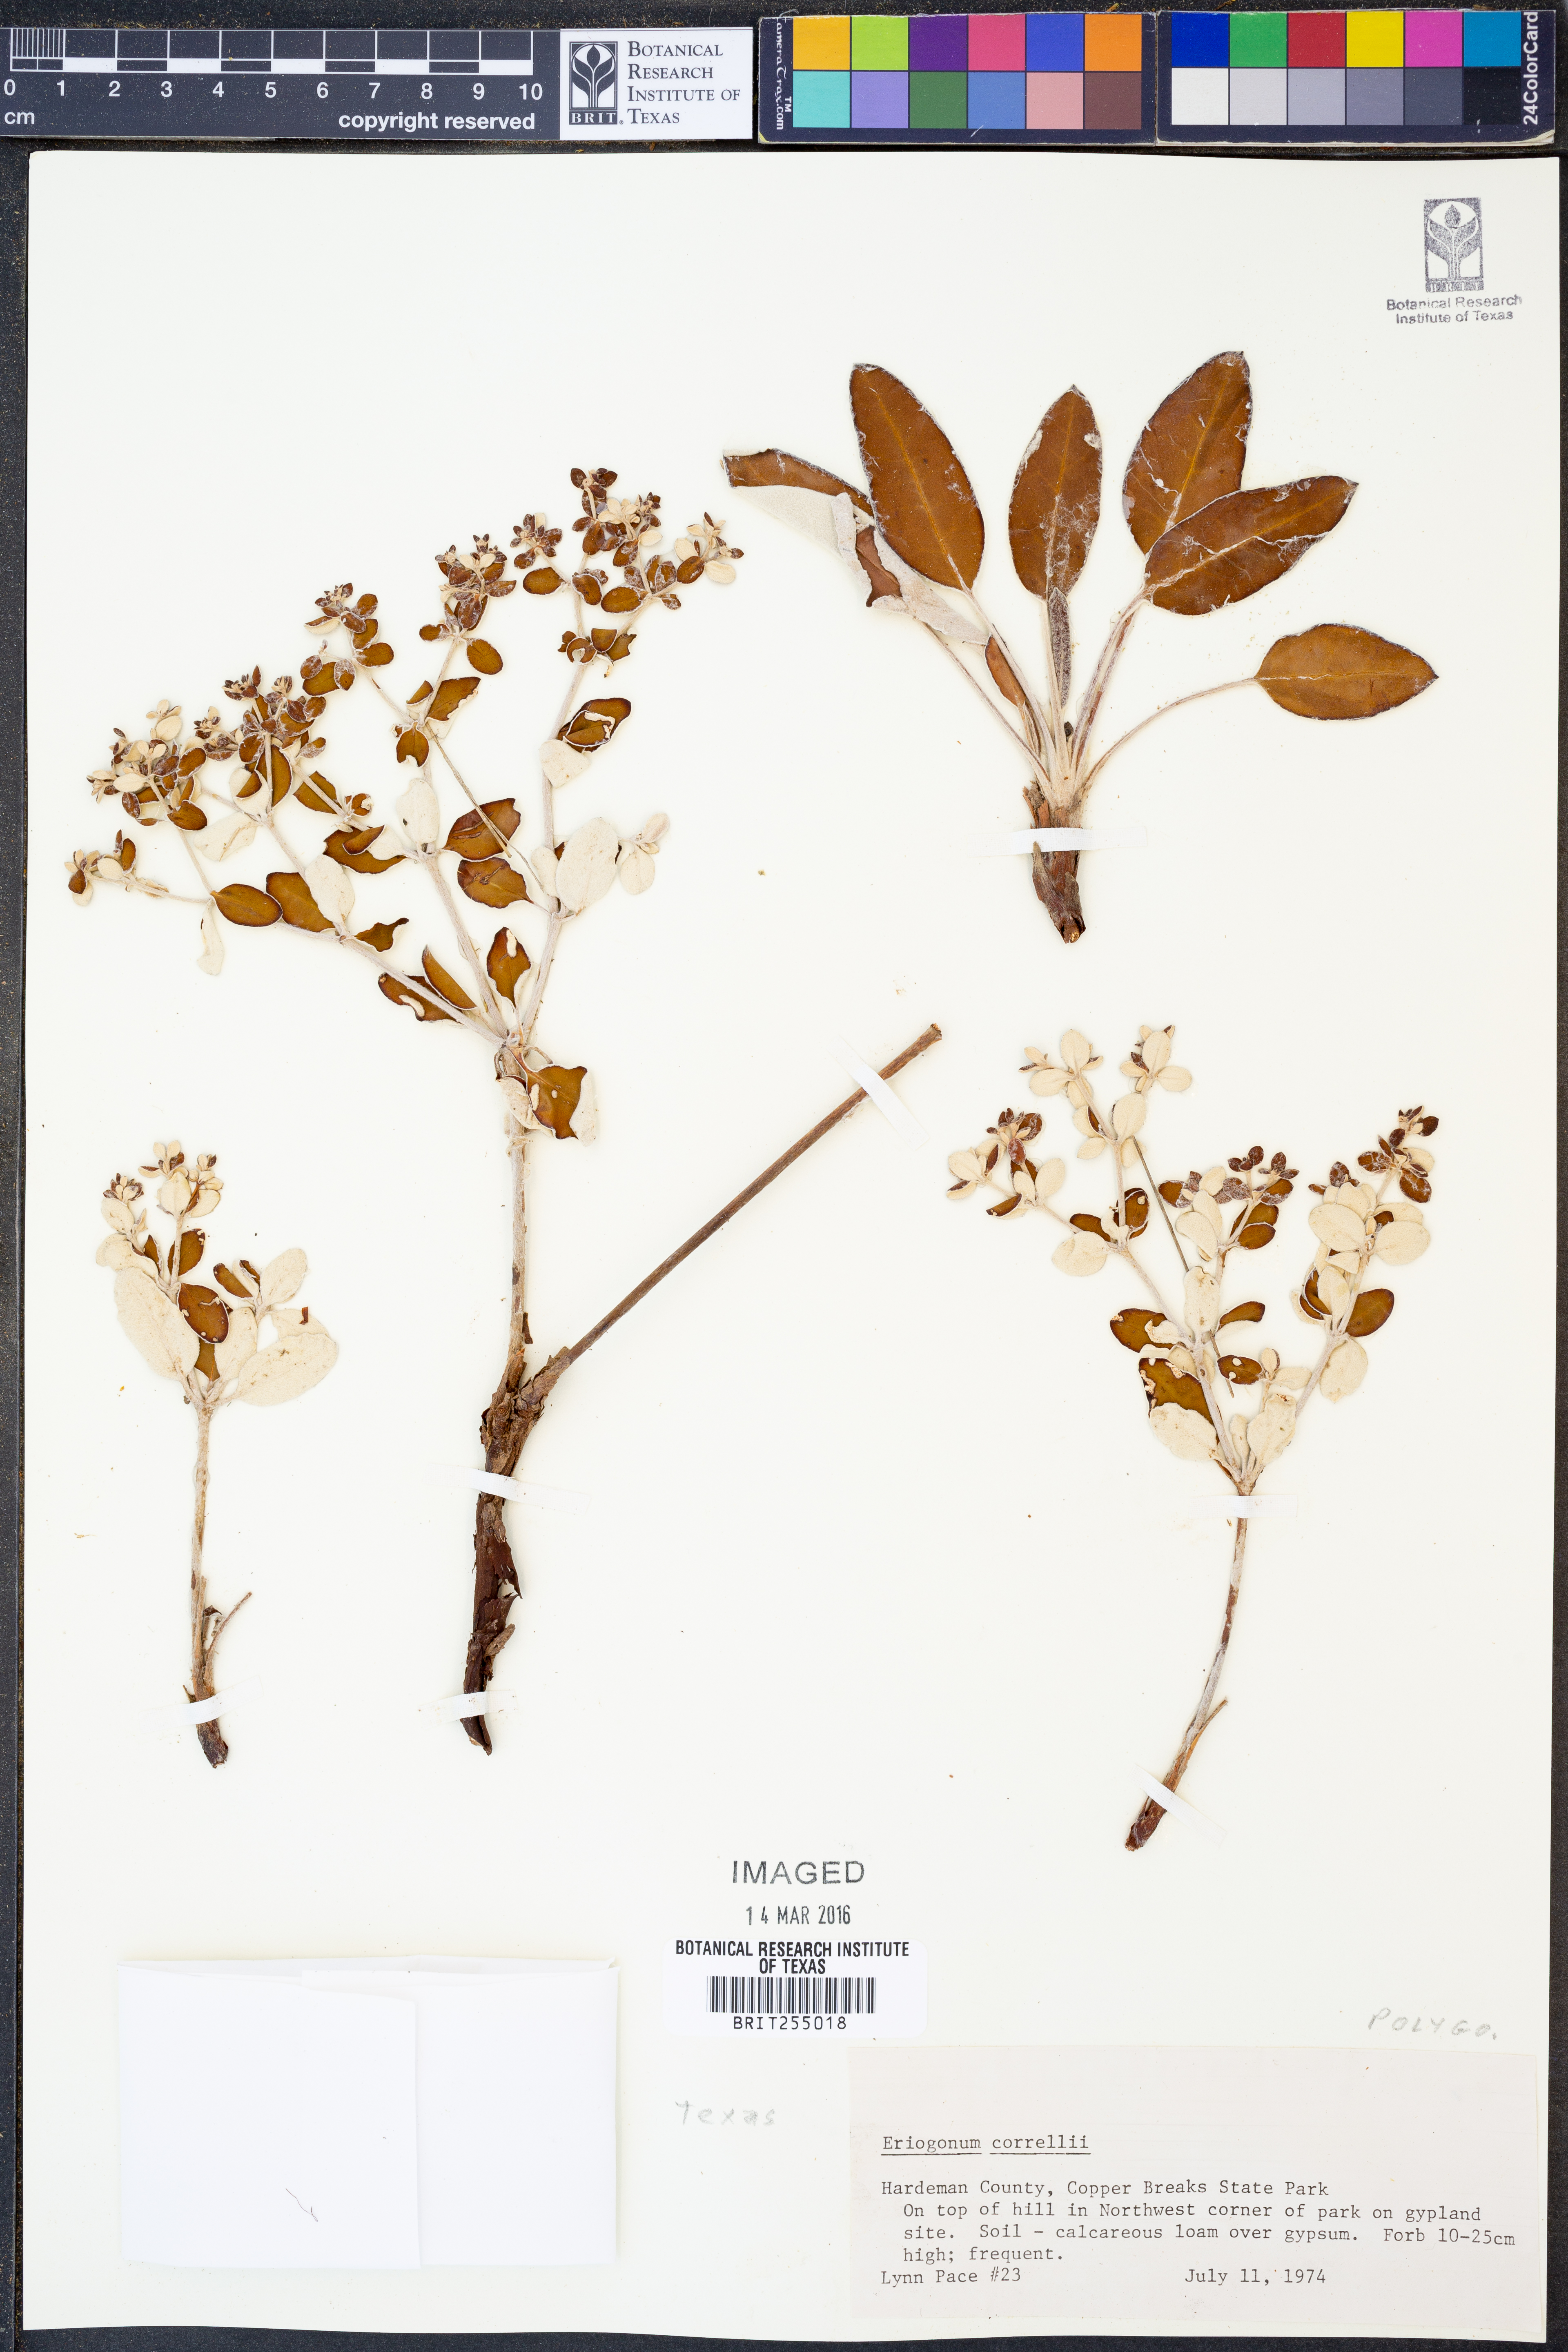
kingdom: Plantae
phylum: Tracheophyta
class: Magnoliopsida
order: Caryophyllales
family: Polygonaceae
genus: Eriogonum
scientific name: Eriogonum correllii
